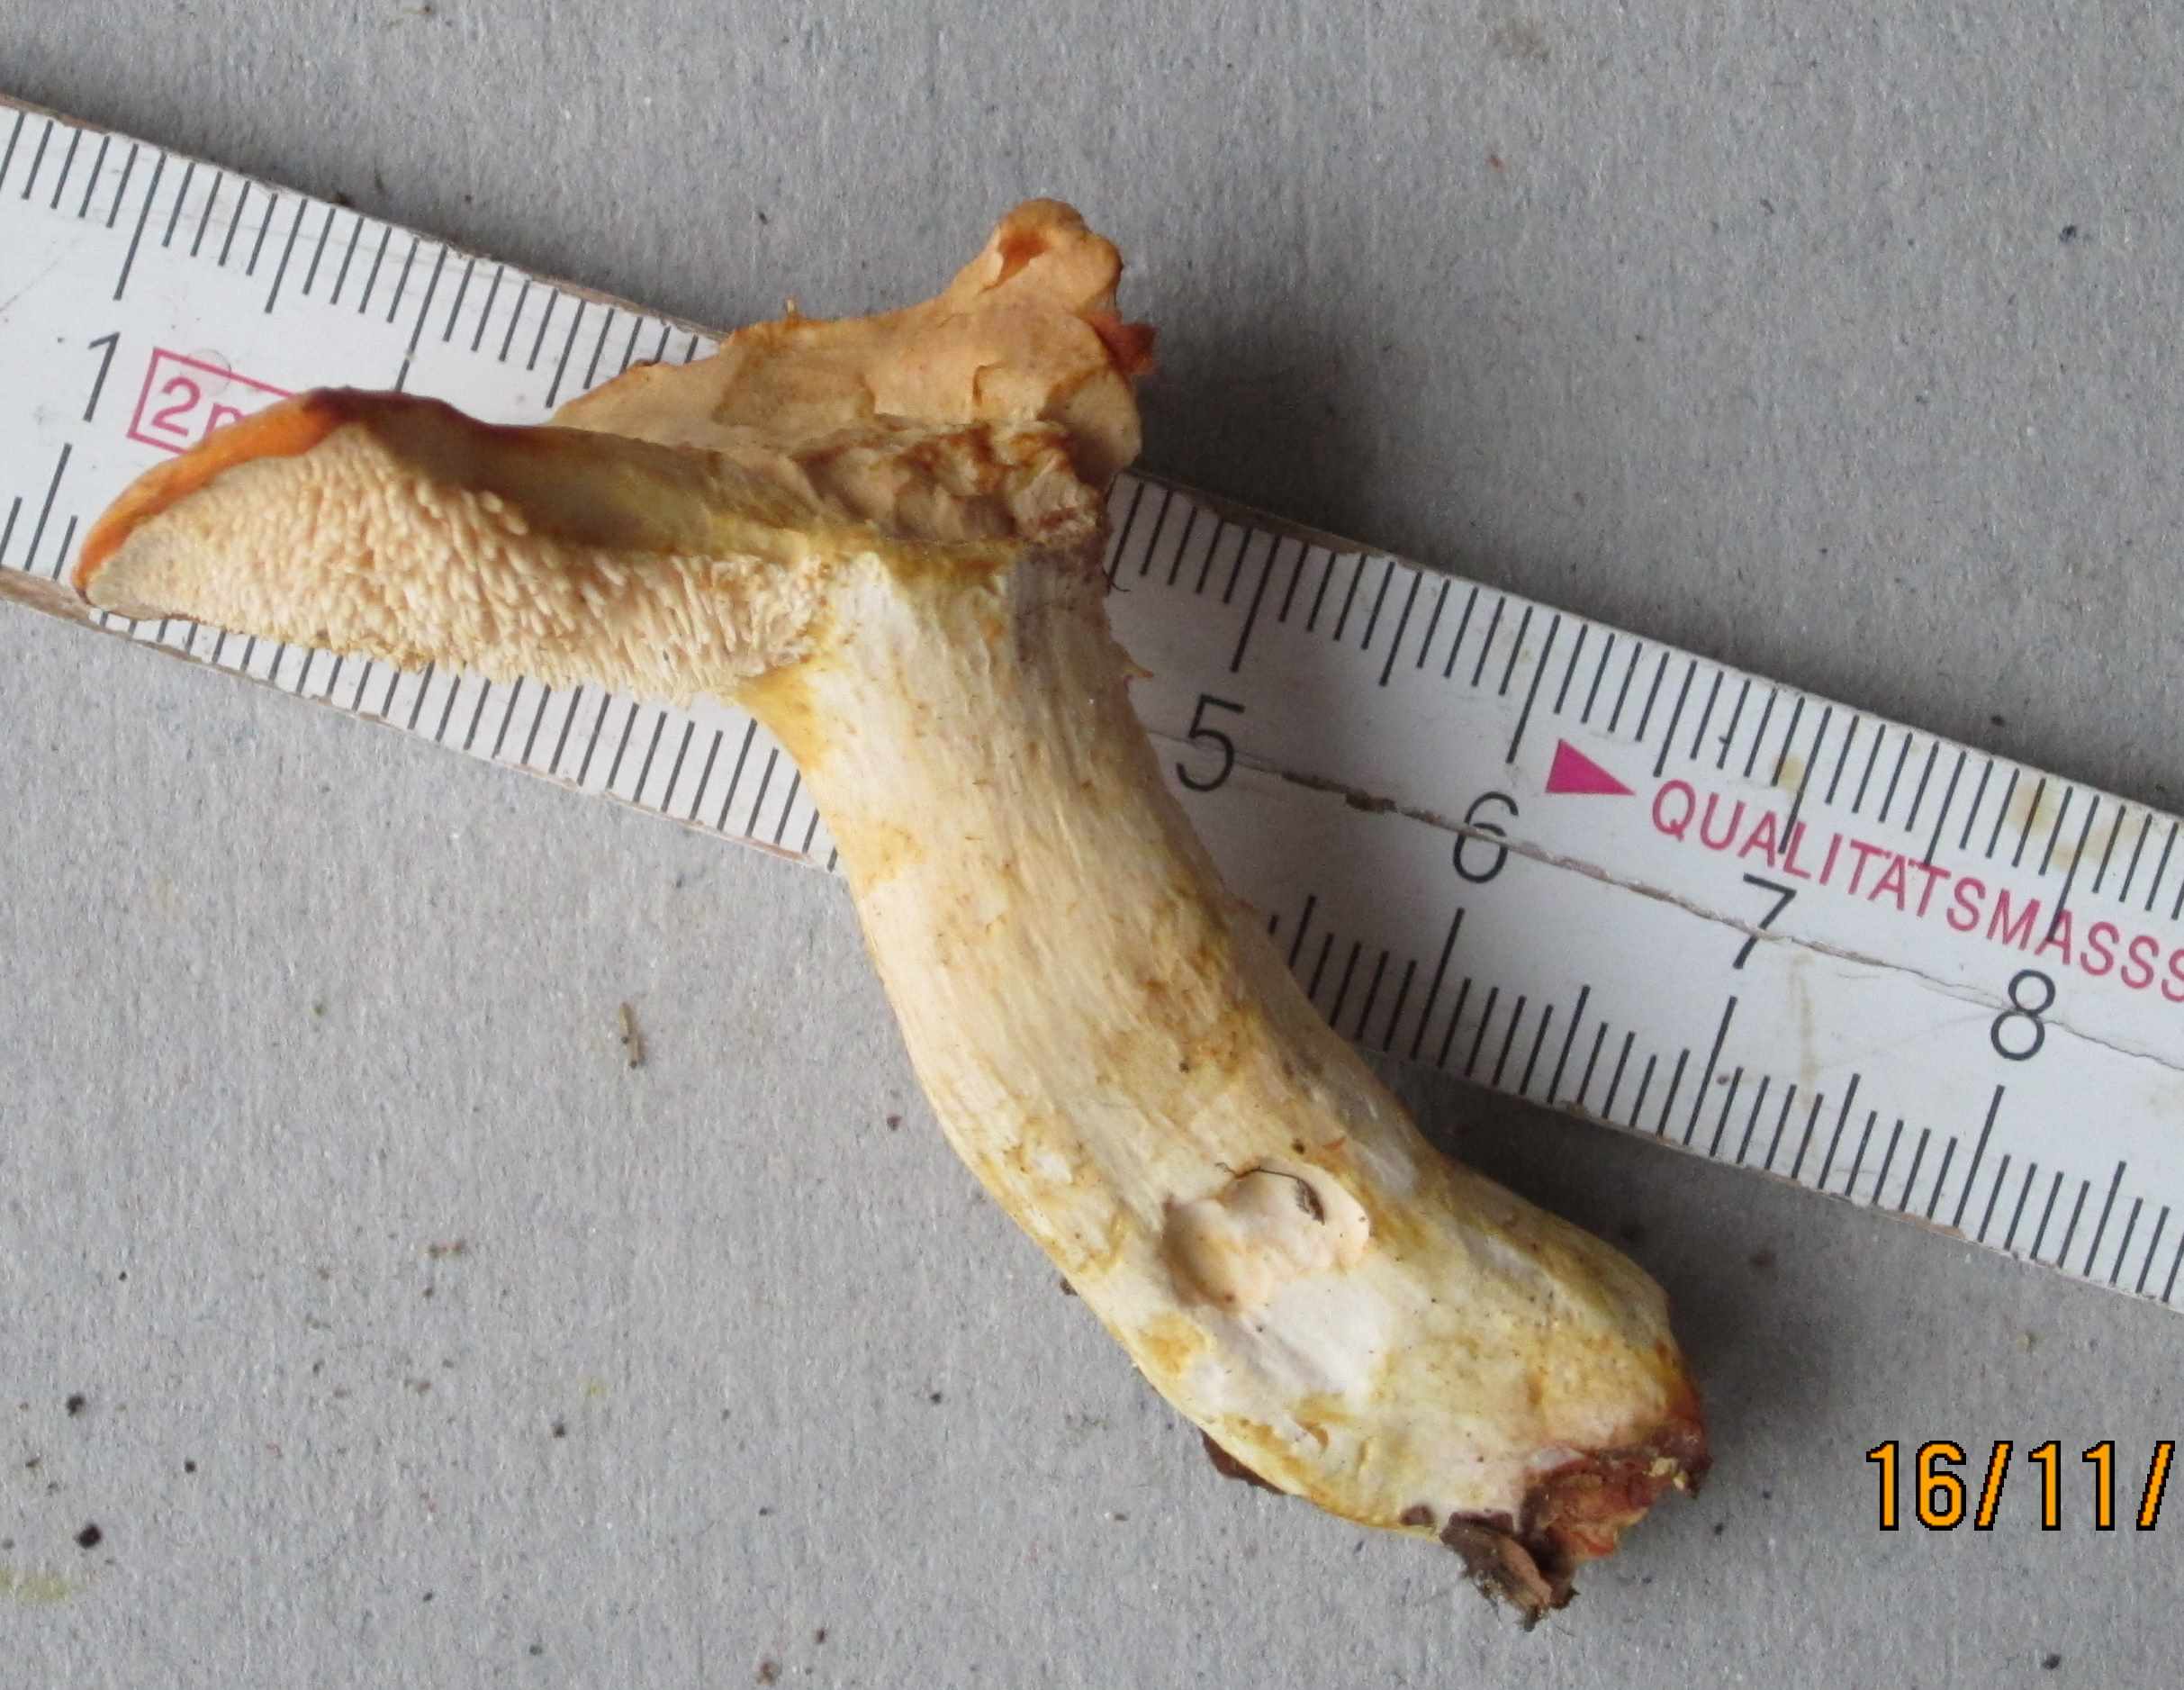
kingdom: Fungi
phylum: Basidiomycota
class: Agaricomycetes
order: Cantharellales
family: Hydnaceae
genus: Hydnum
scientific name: Hydnum rufescens
